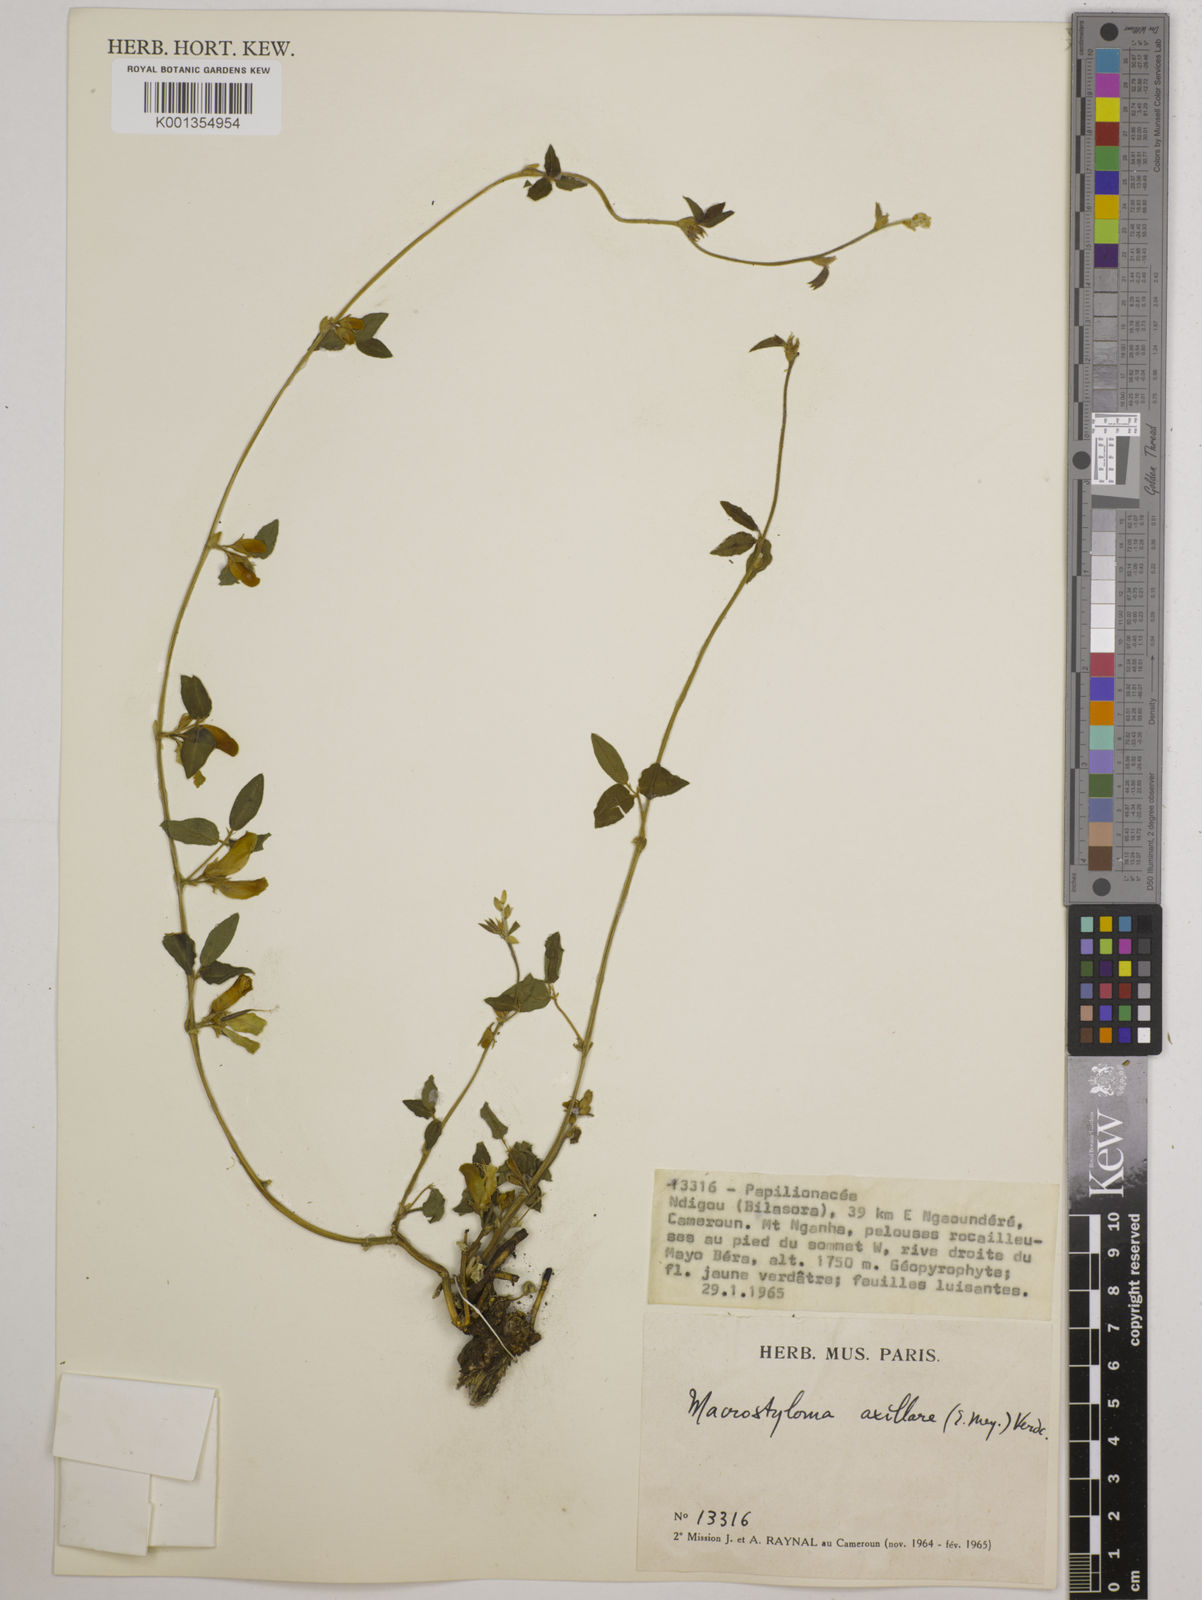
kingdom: Plantae
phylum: Tracheophyta
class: Magnoliopsida
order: Fabales
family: Fabaceae
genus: Macrotyloma
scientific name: Macrotyloma axillare
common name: Perennial horsegram
